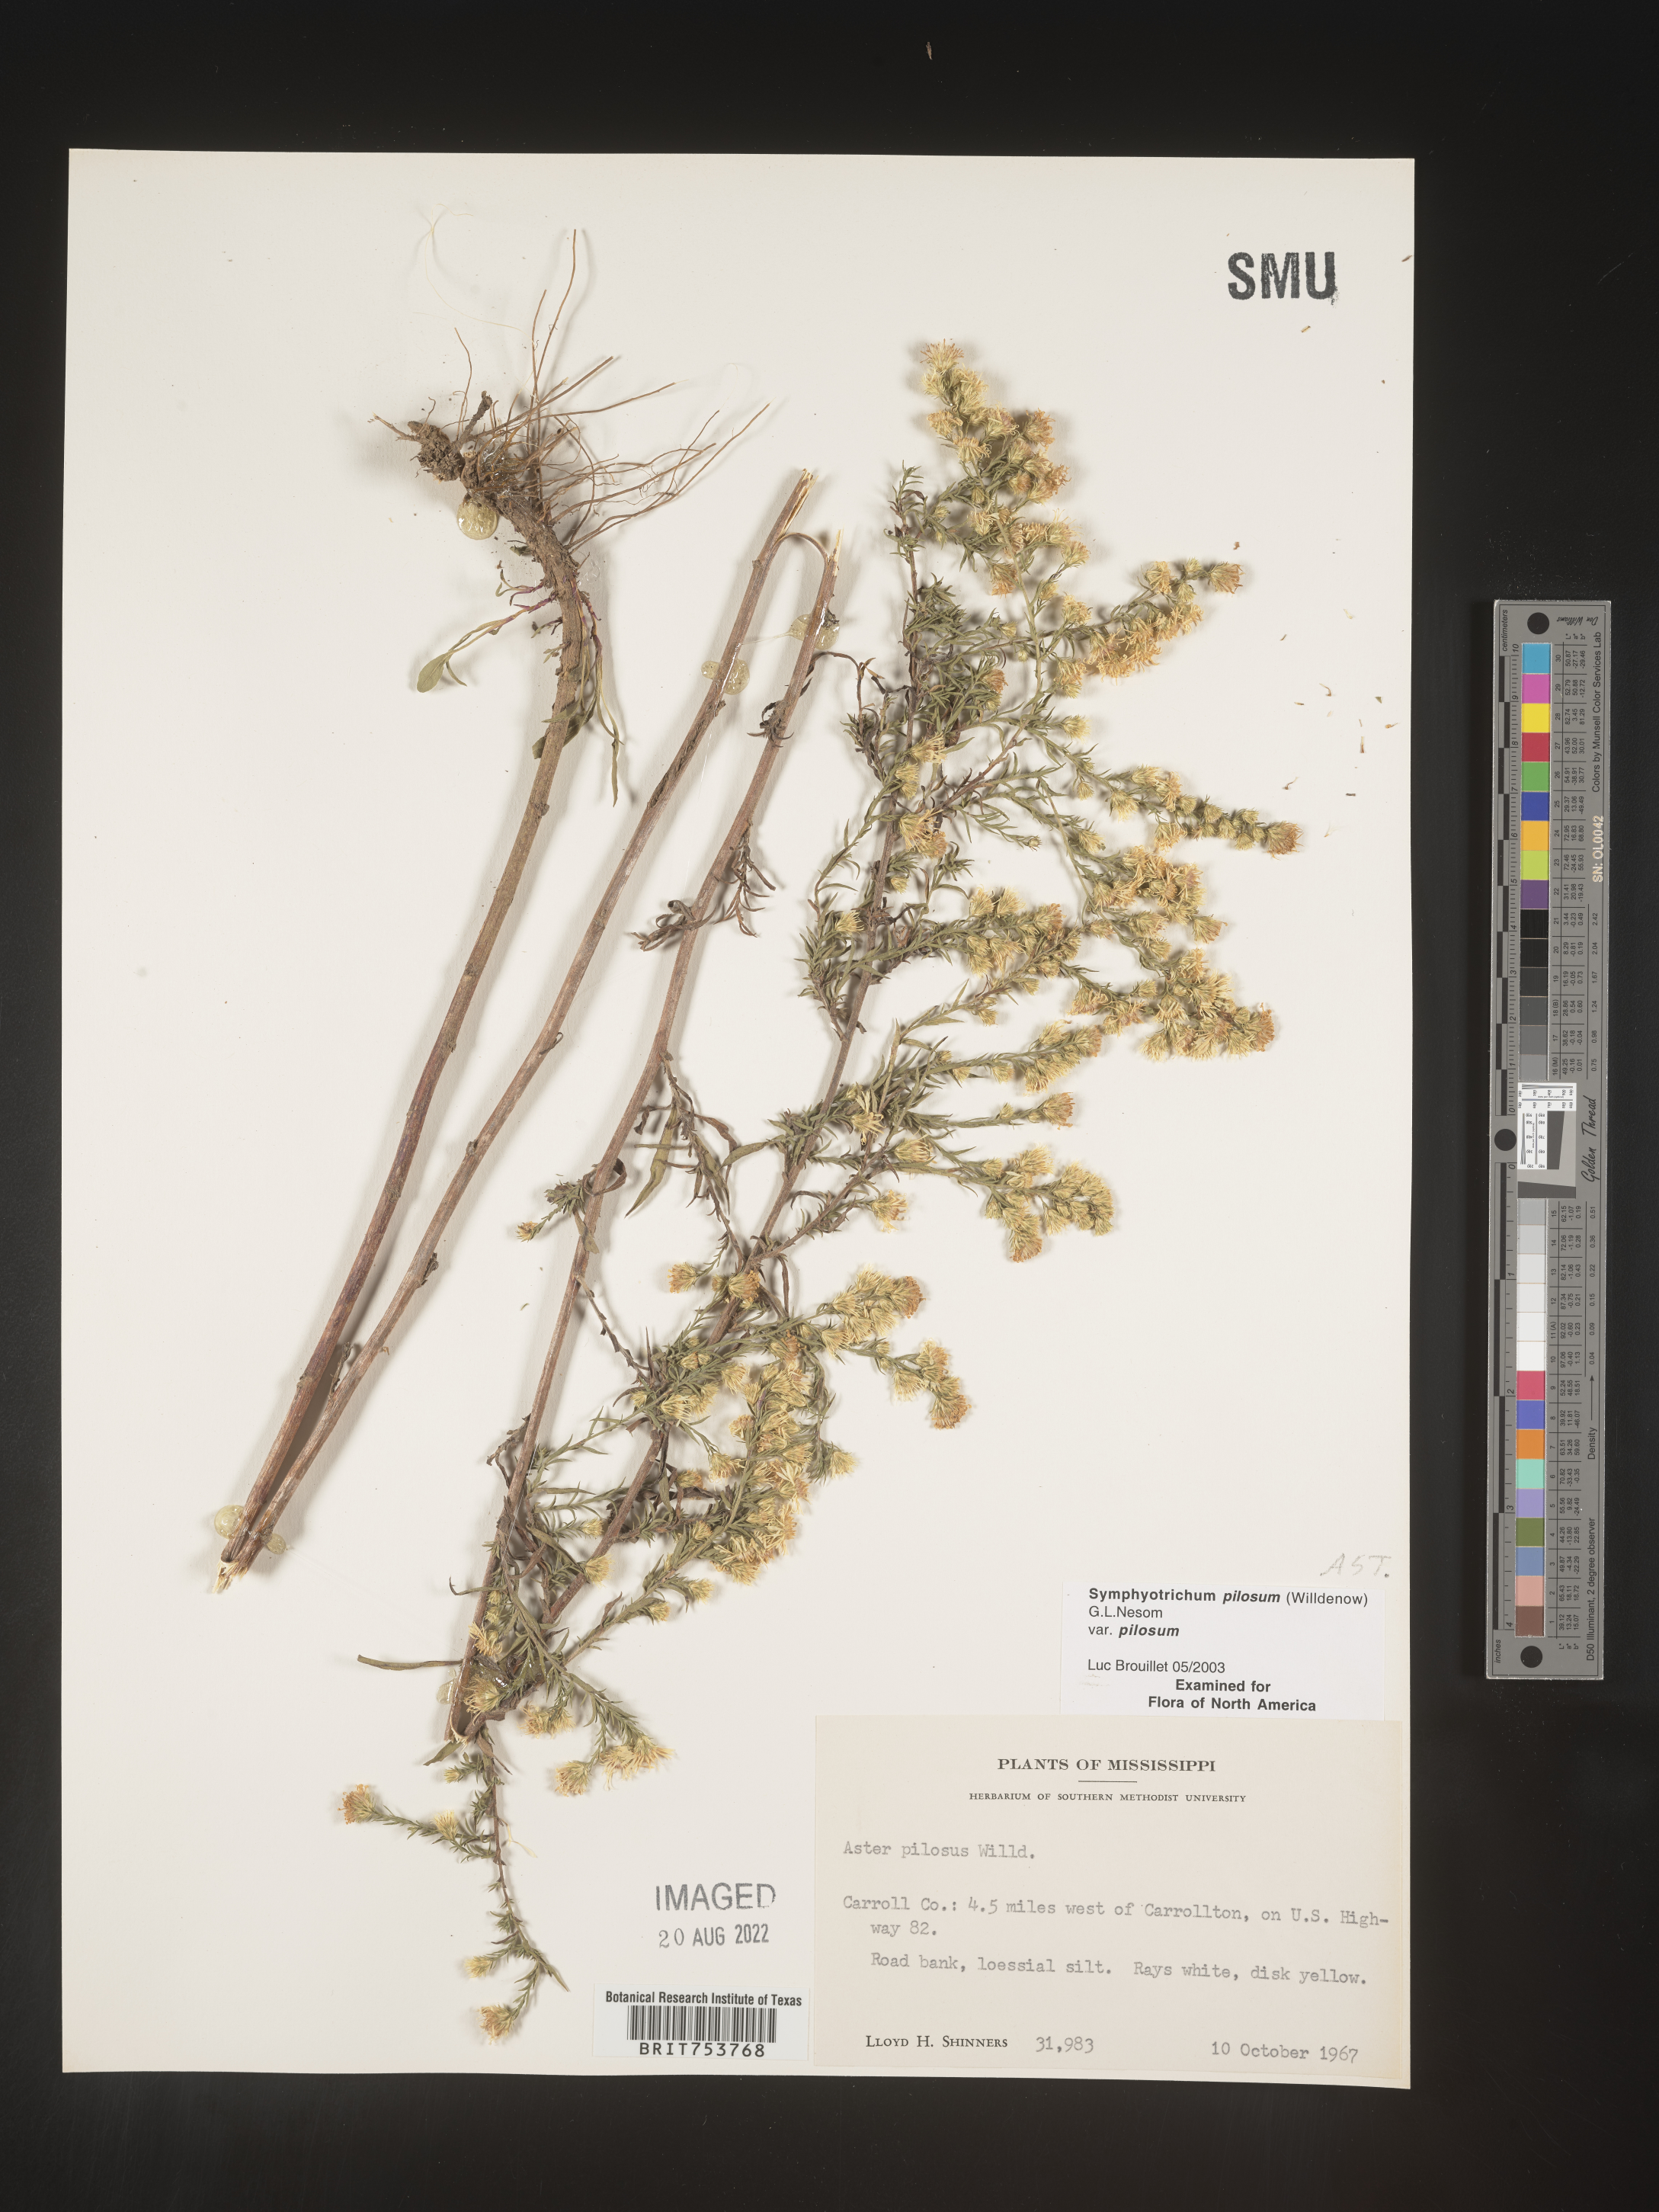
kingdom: Plantae
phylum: Tracheophyta
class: Magnoliopsida
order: Asterales
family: Asteraceae
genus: Symphyotrichum
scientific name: Symphyotrichum pilosum
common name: Awl aster
